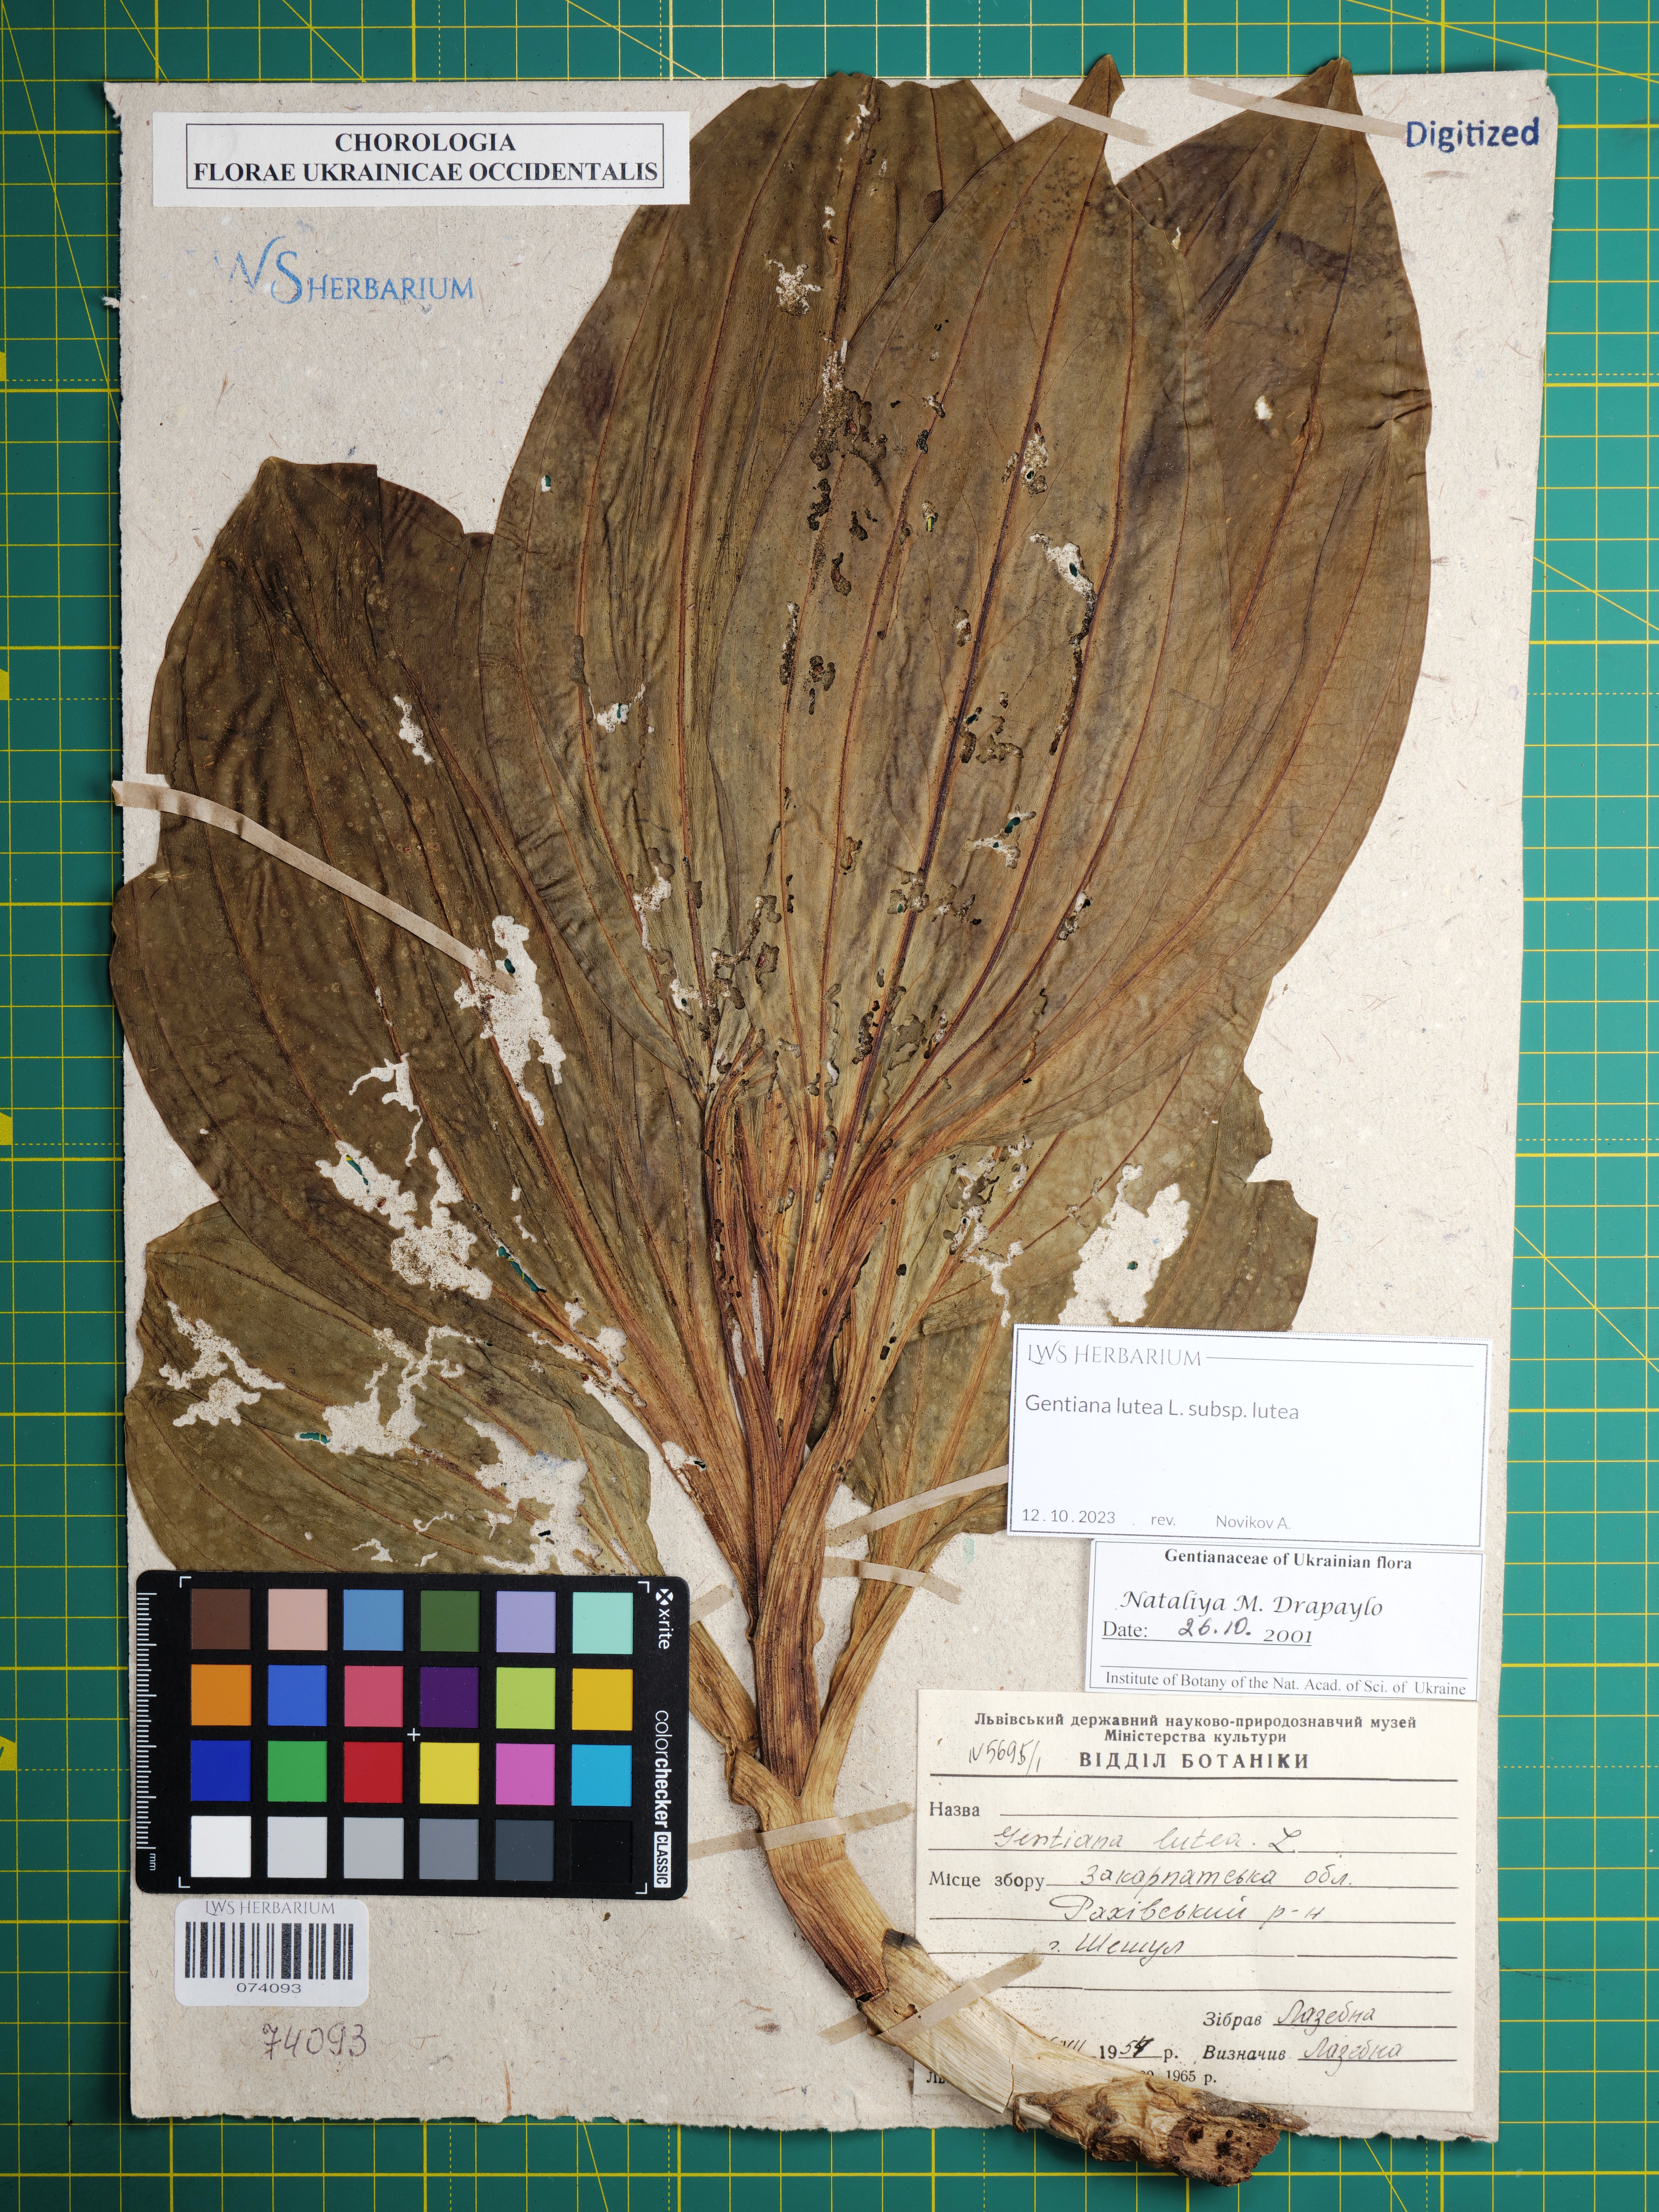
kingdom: Plantae
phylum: Tracheophyta
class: Magnoliopsida
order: Gentianales
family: Gentianaceae
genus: Gentiana
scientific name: Gentiana lutea
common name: Great yellow gentian
